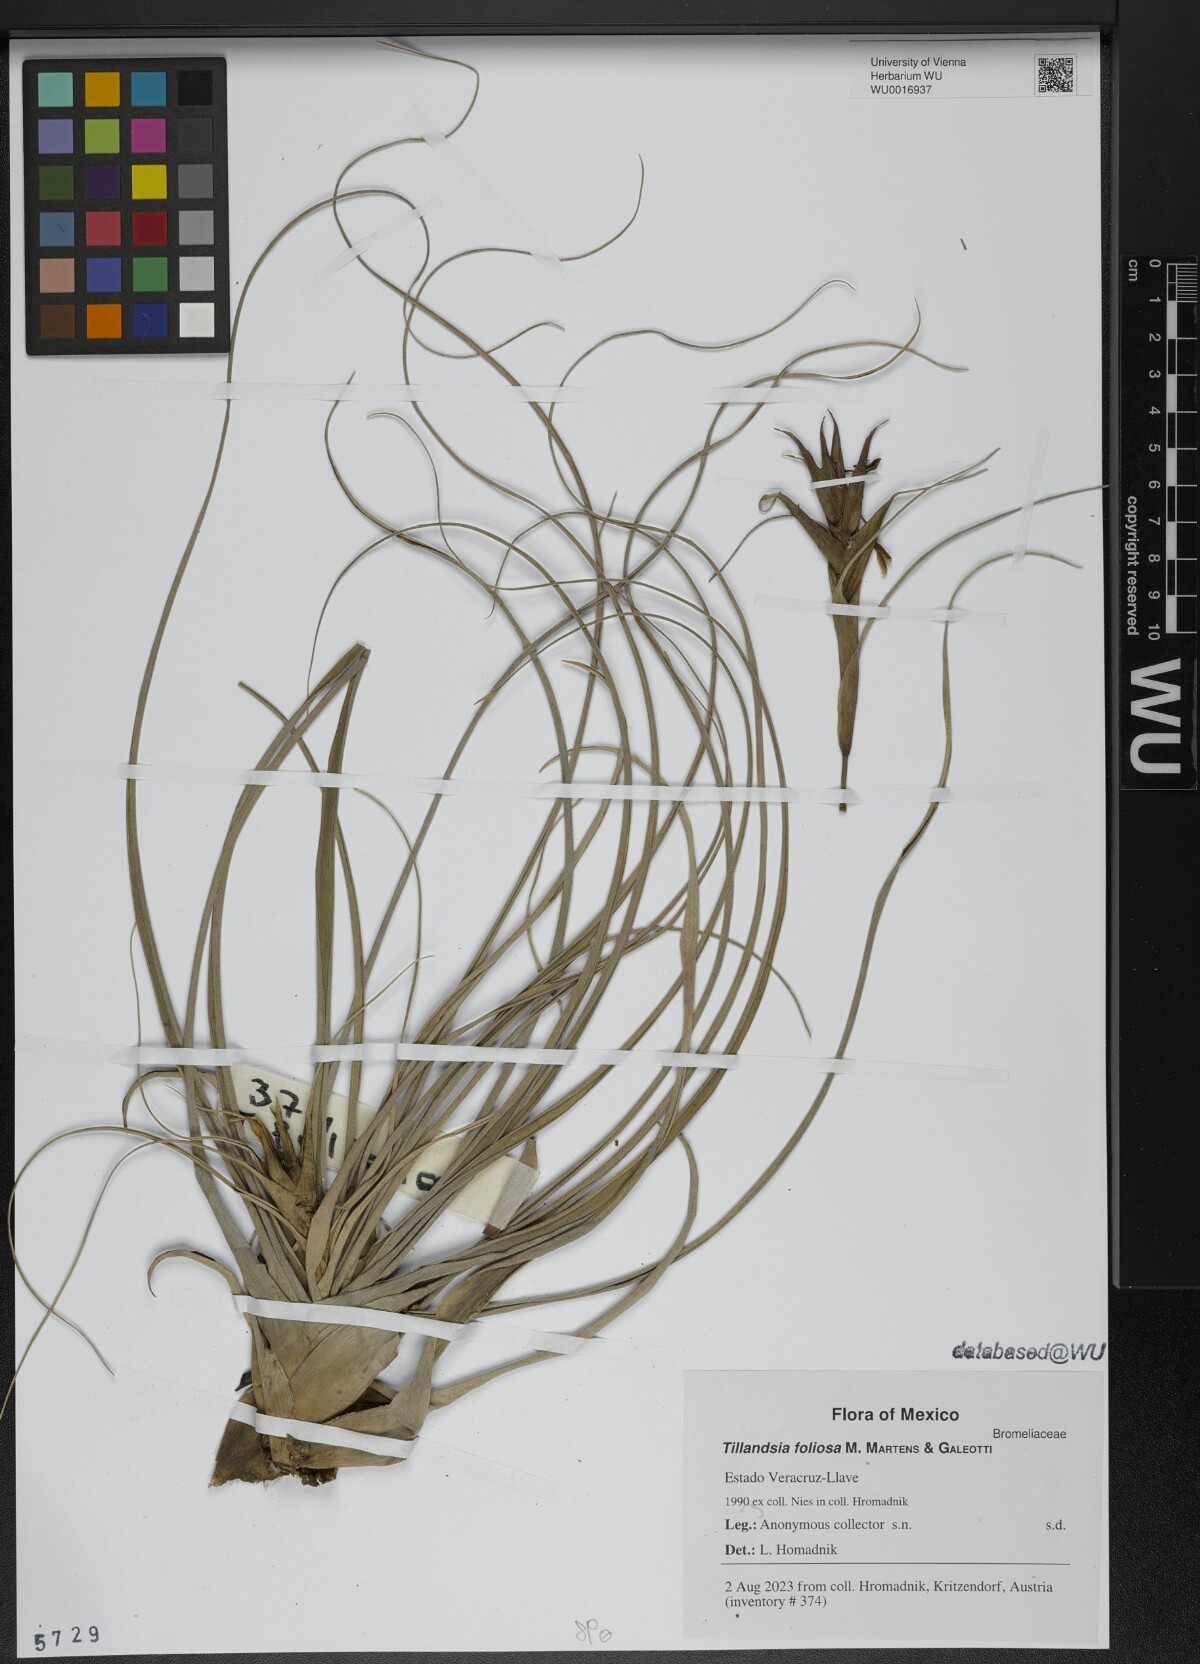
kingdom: Plantae
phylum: Tracheophyta
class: Liliopsida
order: Poales
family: Bromeliaceae
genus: Tillandsia
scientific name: Tillandsia foliosa
